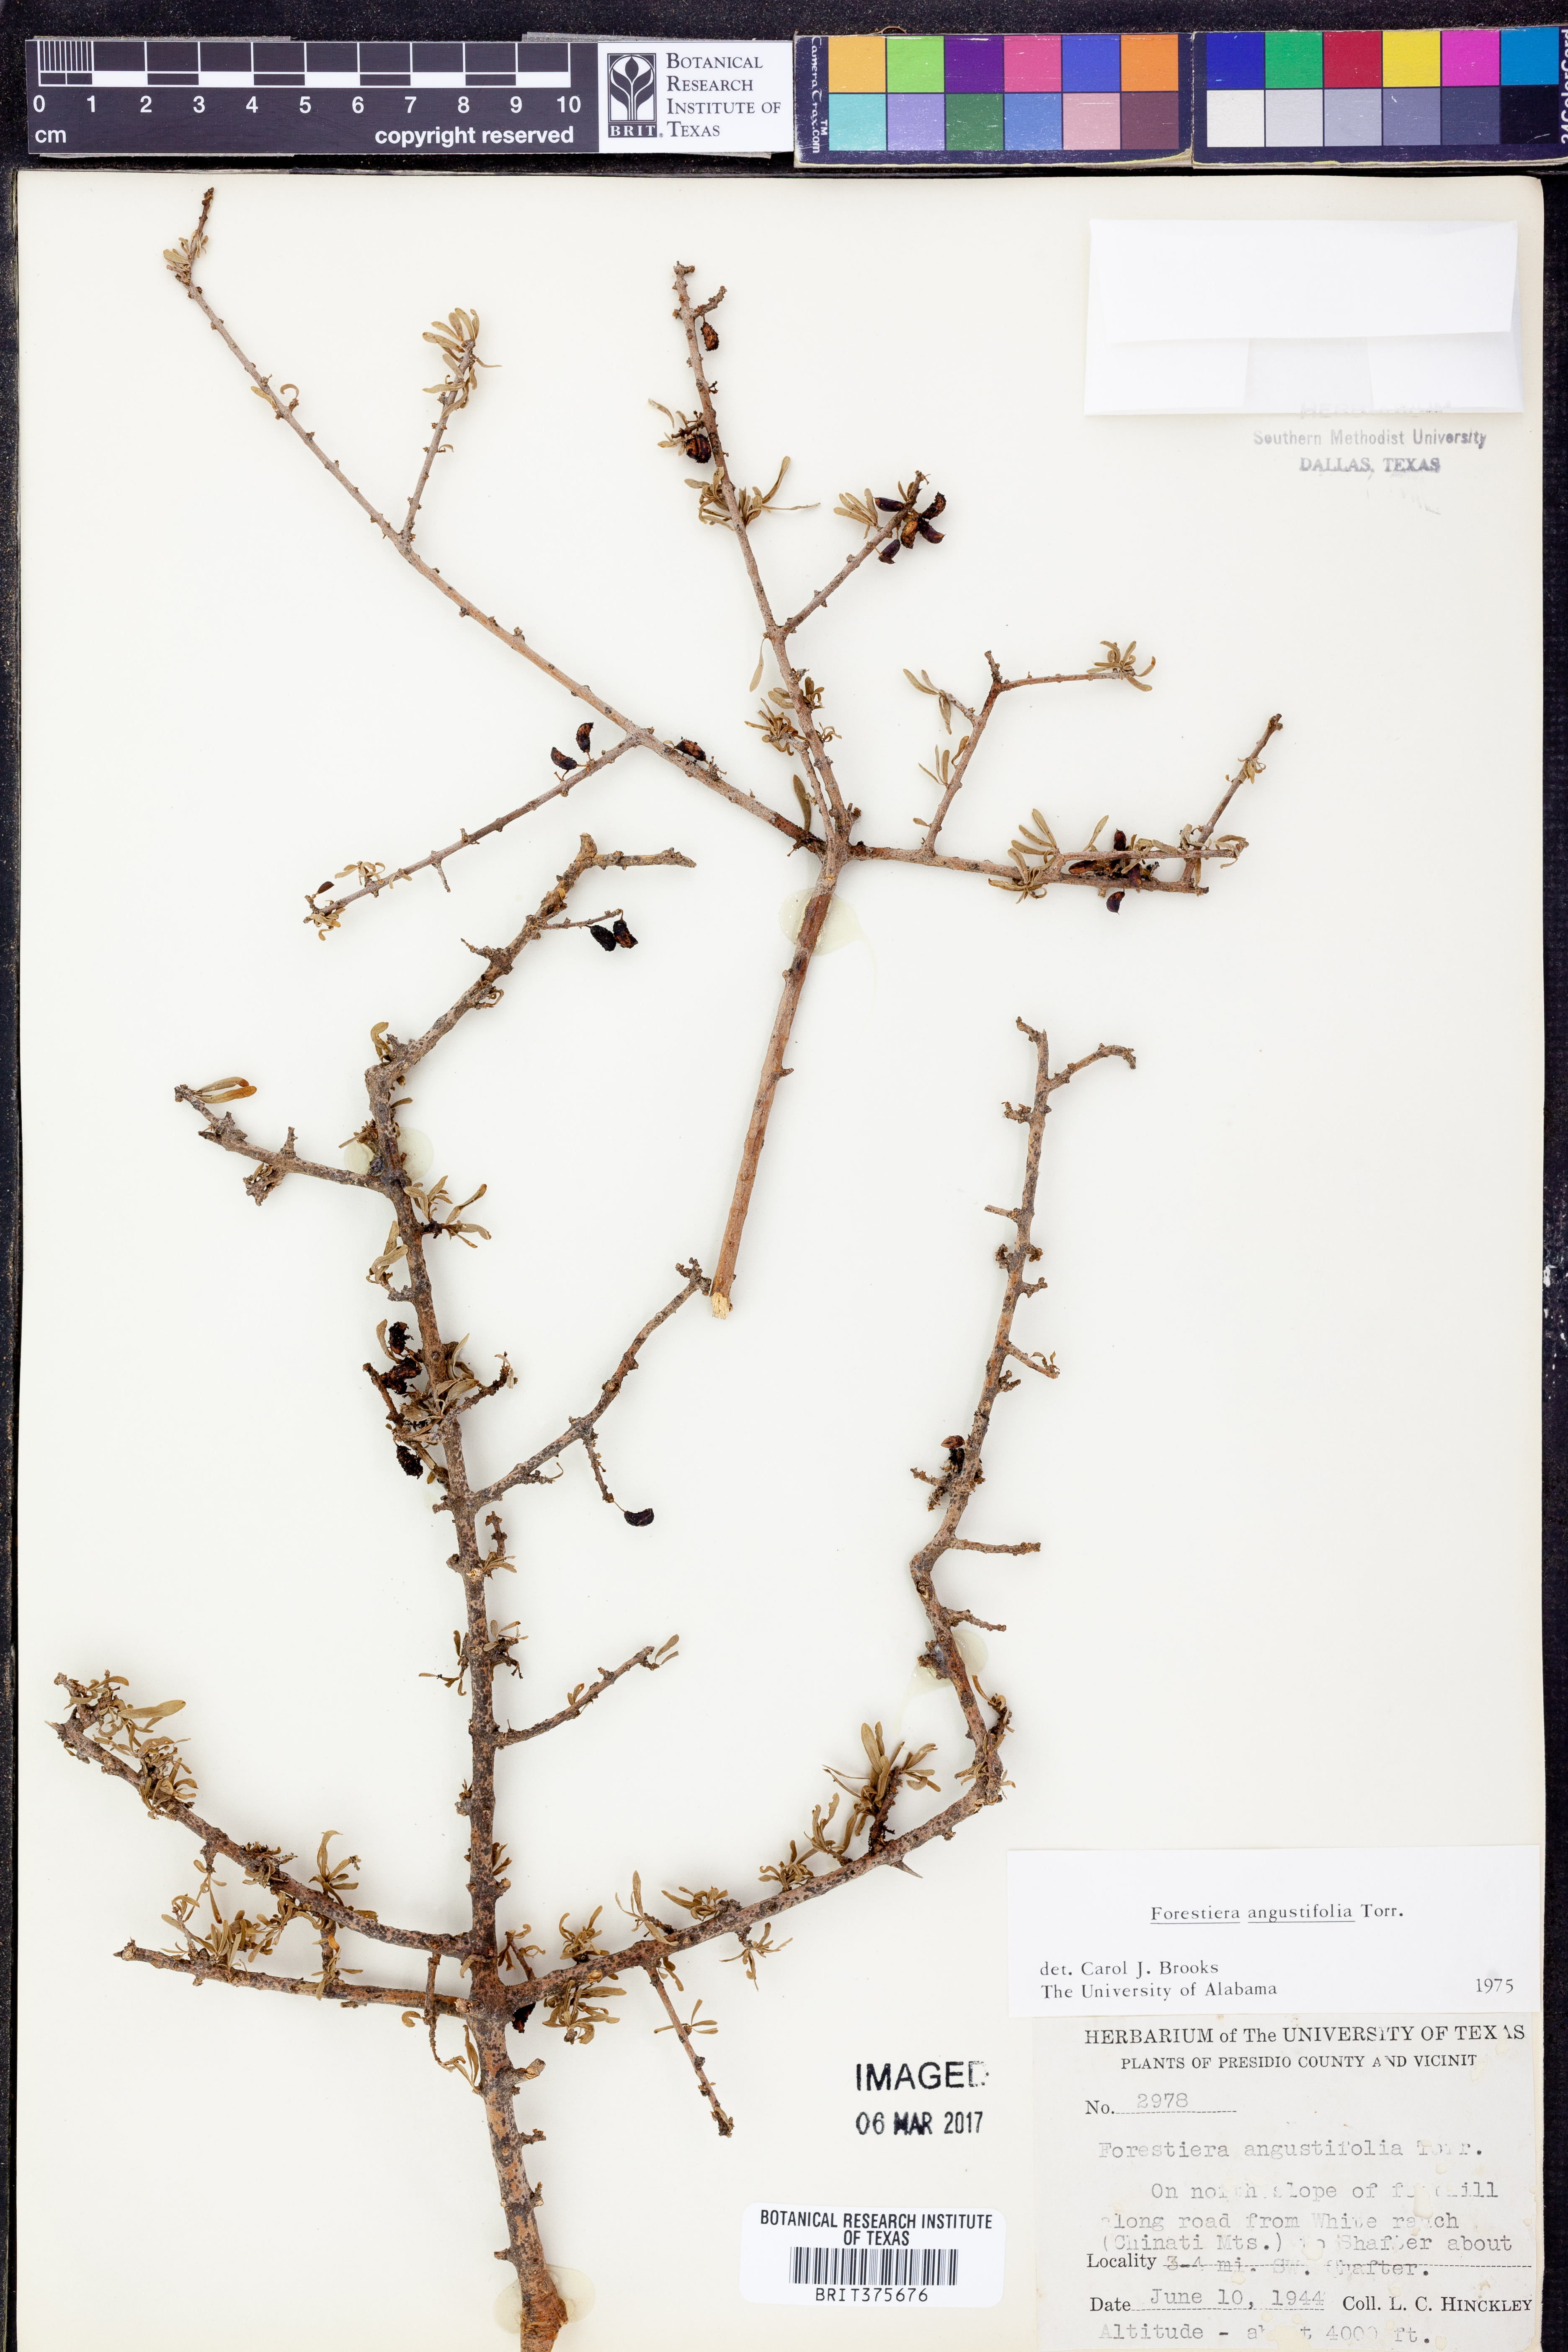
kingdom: Plantae
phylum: Tracheophyta
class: Magnoliopsida
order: Lamiales
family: Oleaceae
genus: Forestiera
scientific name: Forestiera angustifolia
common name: Elbowbush
